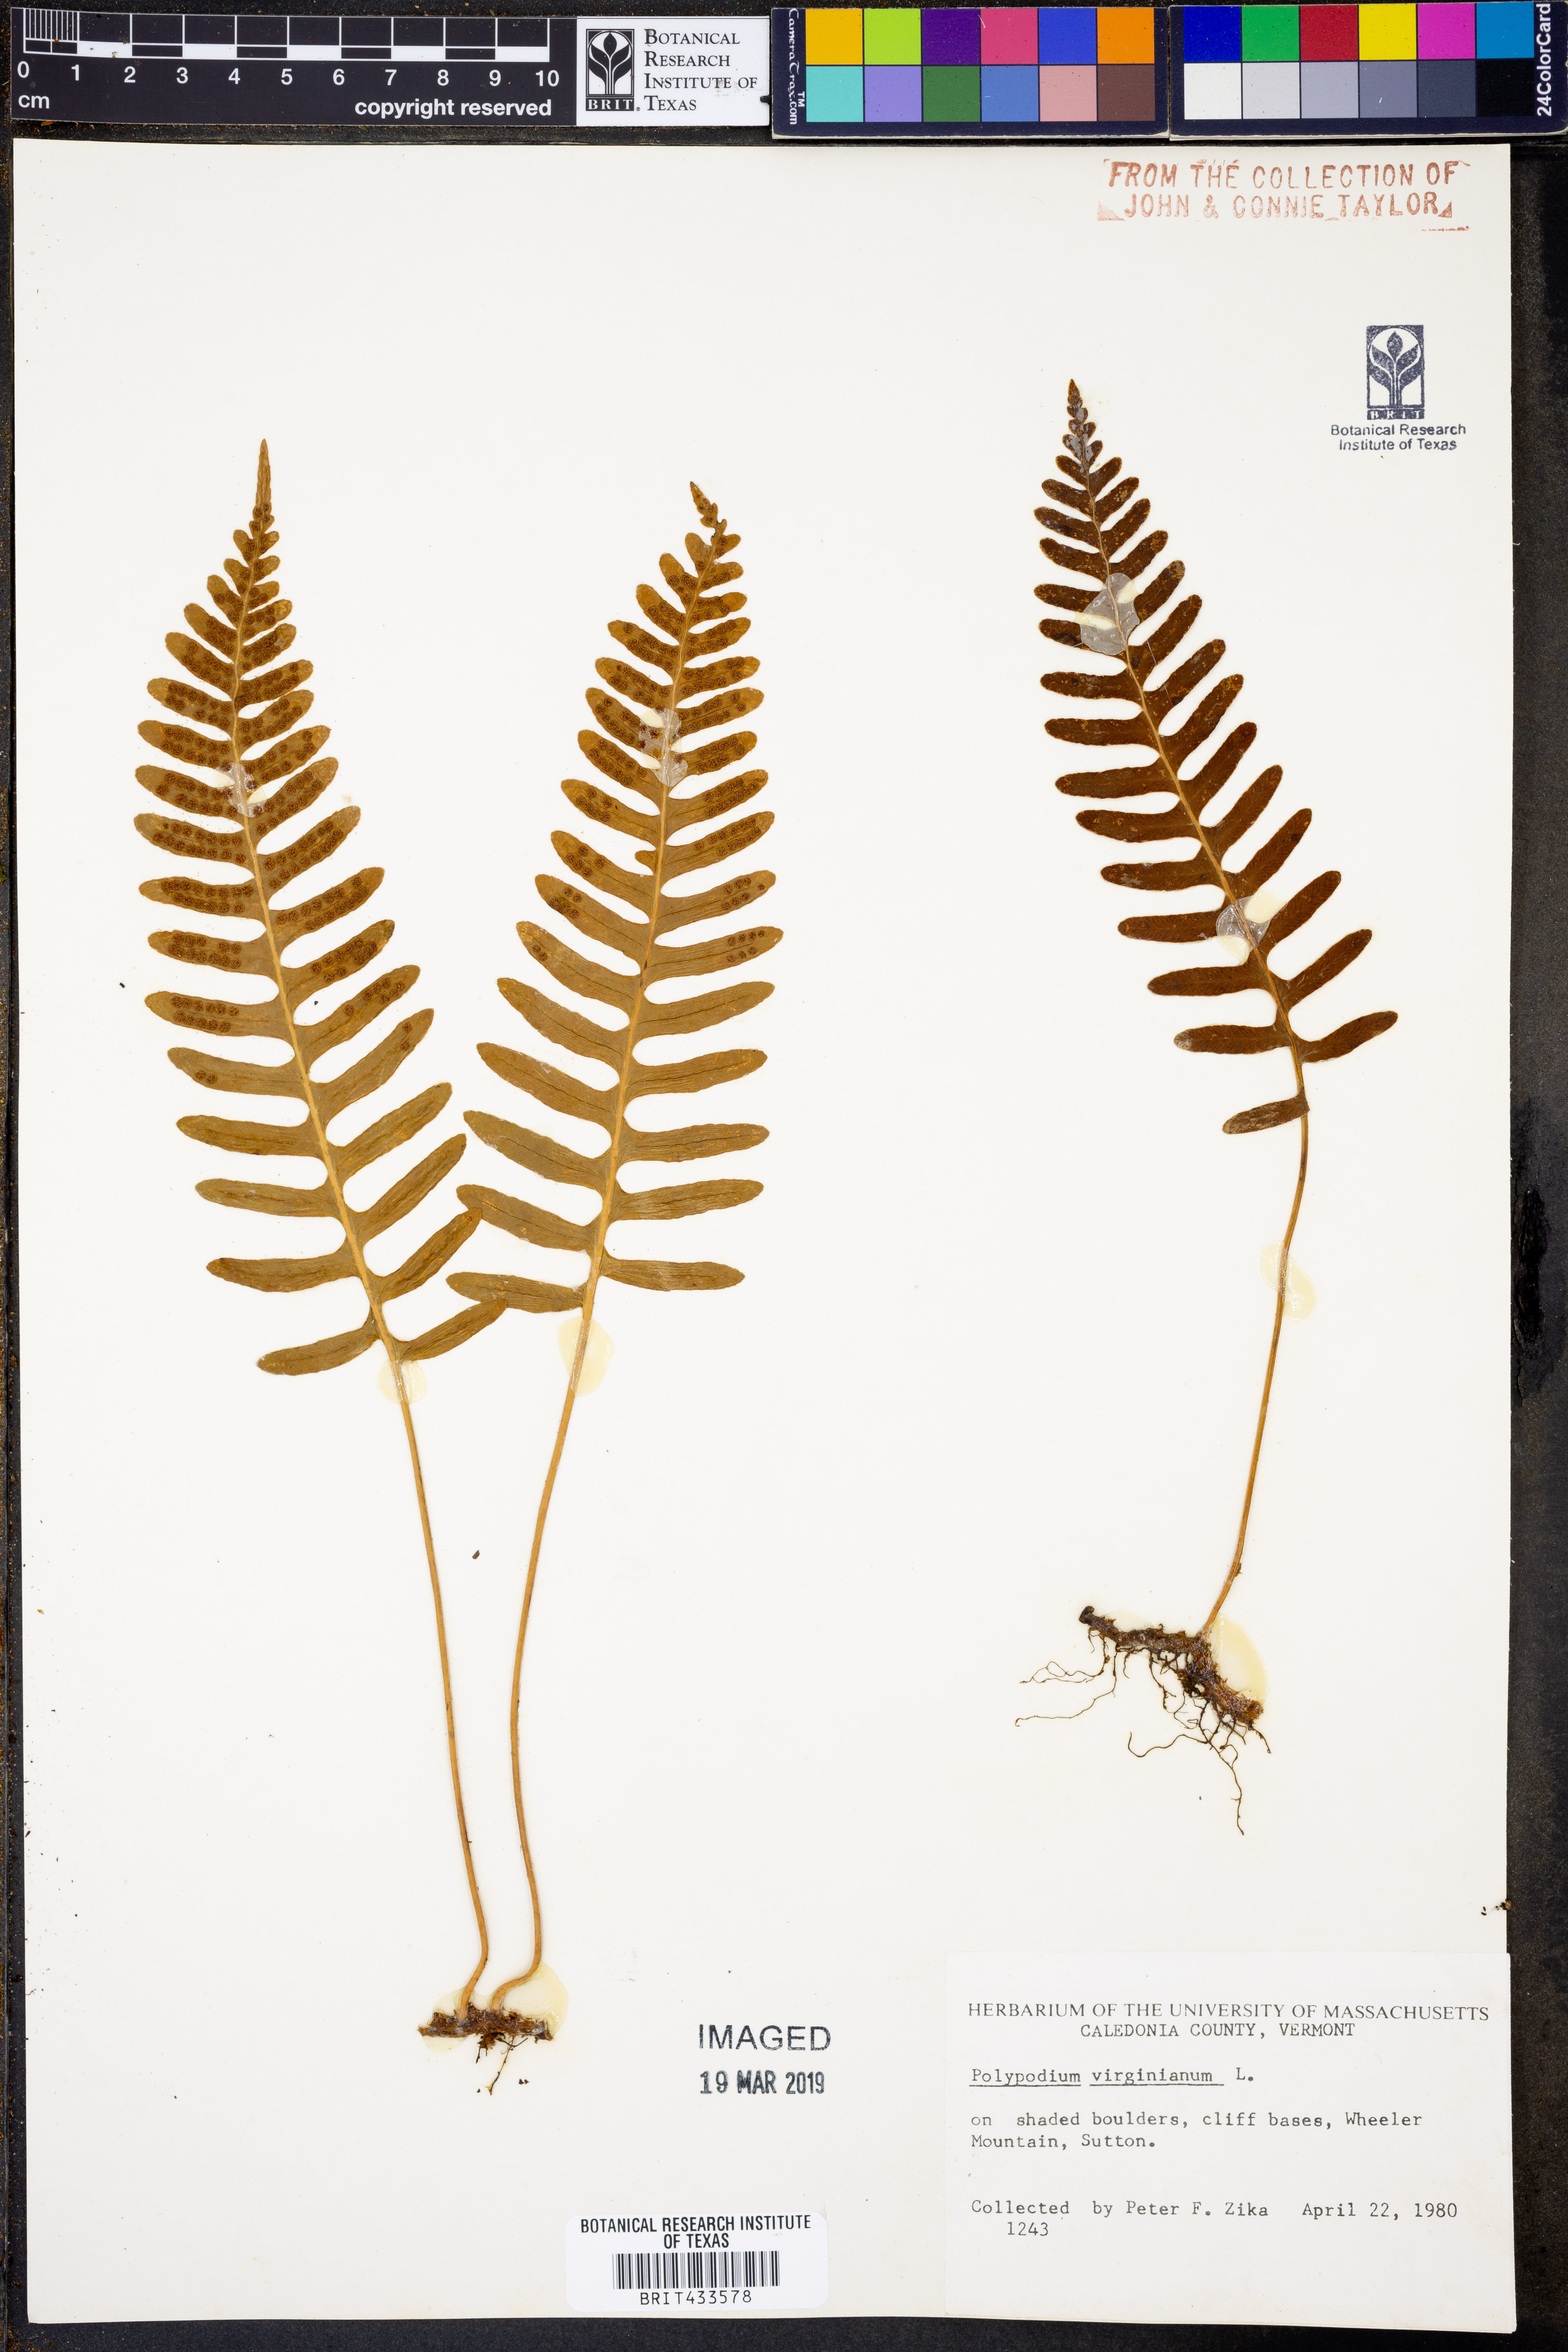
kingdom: Plantae
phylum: Tracheophyta
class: Polypodiopsida
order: Polypodiales
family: Polypodiaceae
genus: Polypodium
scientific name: Polypodium virginianum
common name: American wall fern
